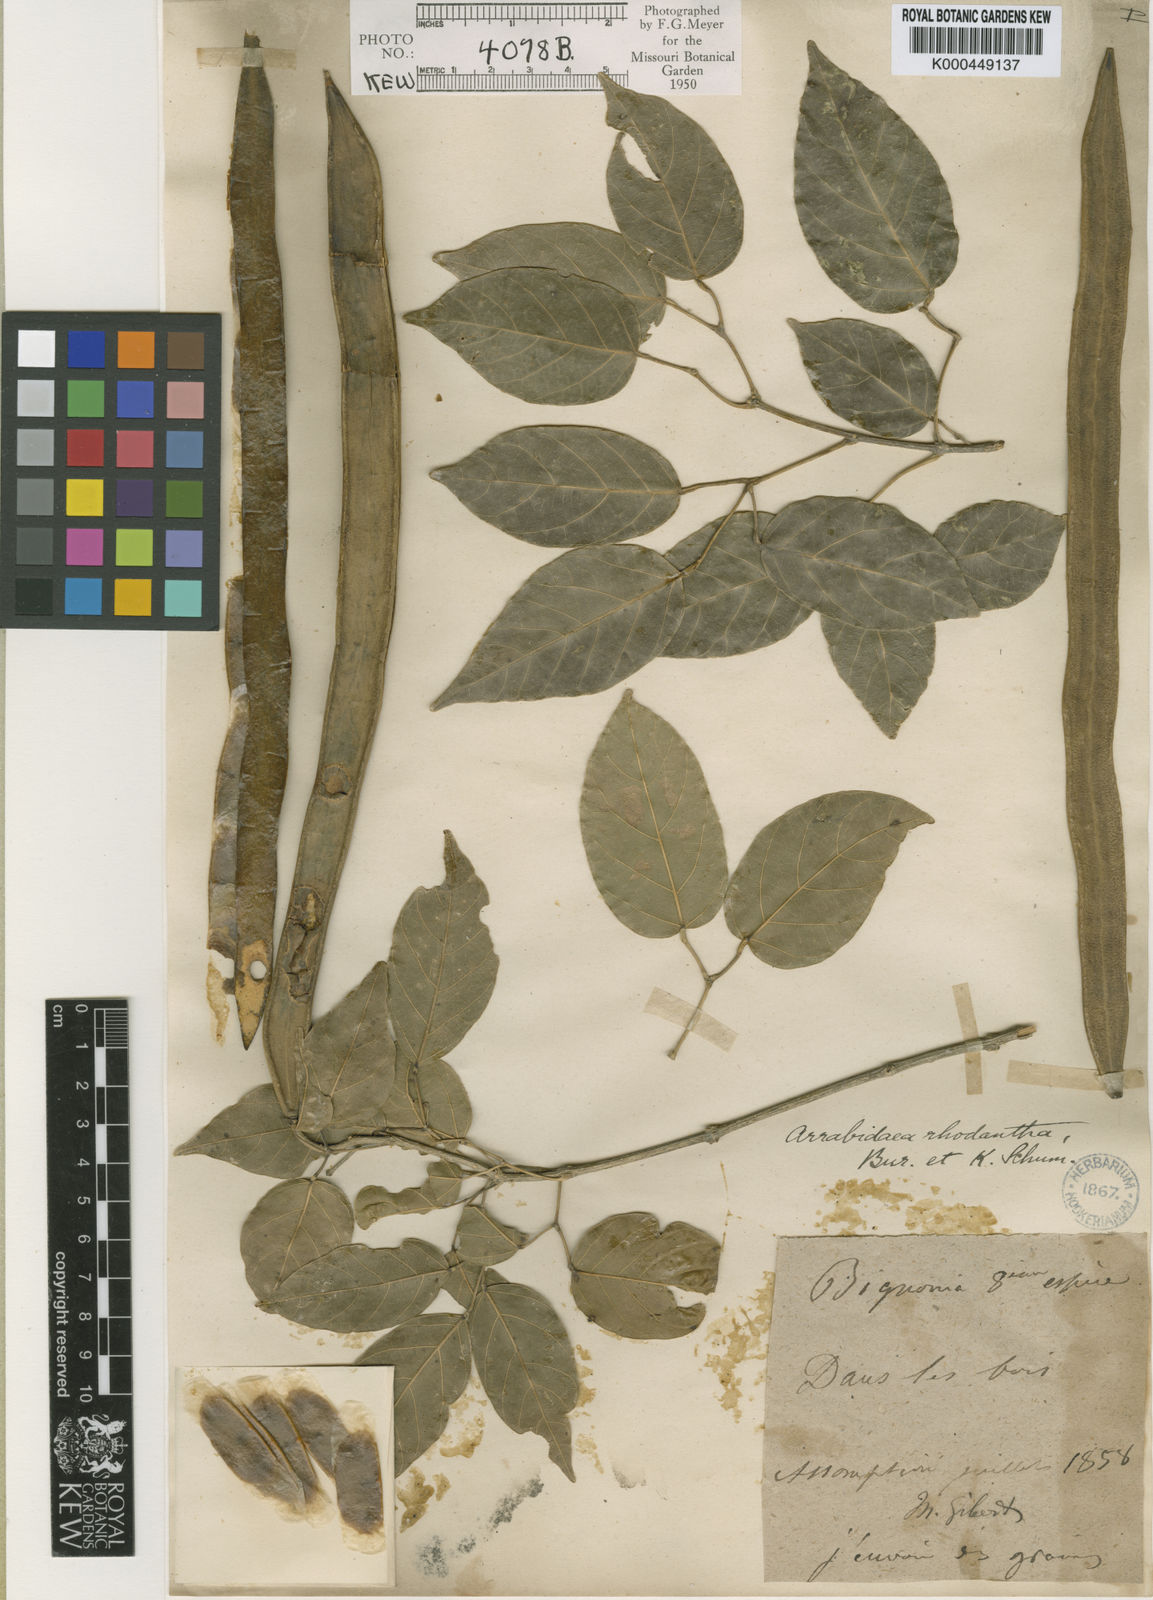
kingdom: Plantae
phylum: Tracheophyta
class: Magnoliopsida
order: Lamiales
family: Bignoniaceae
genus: Tanaecium
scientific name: Tanaecium dichotomum
